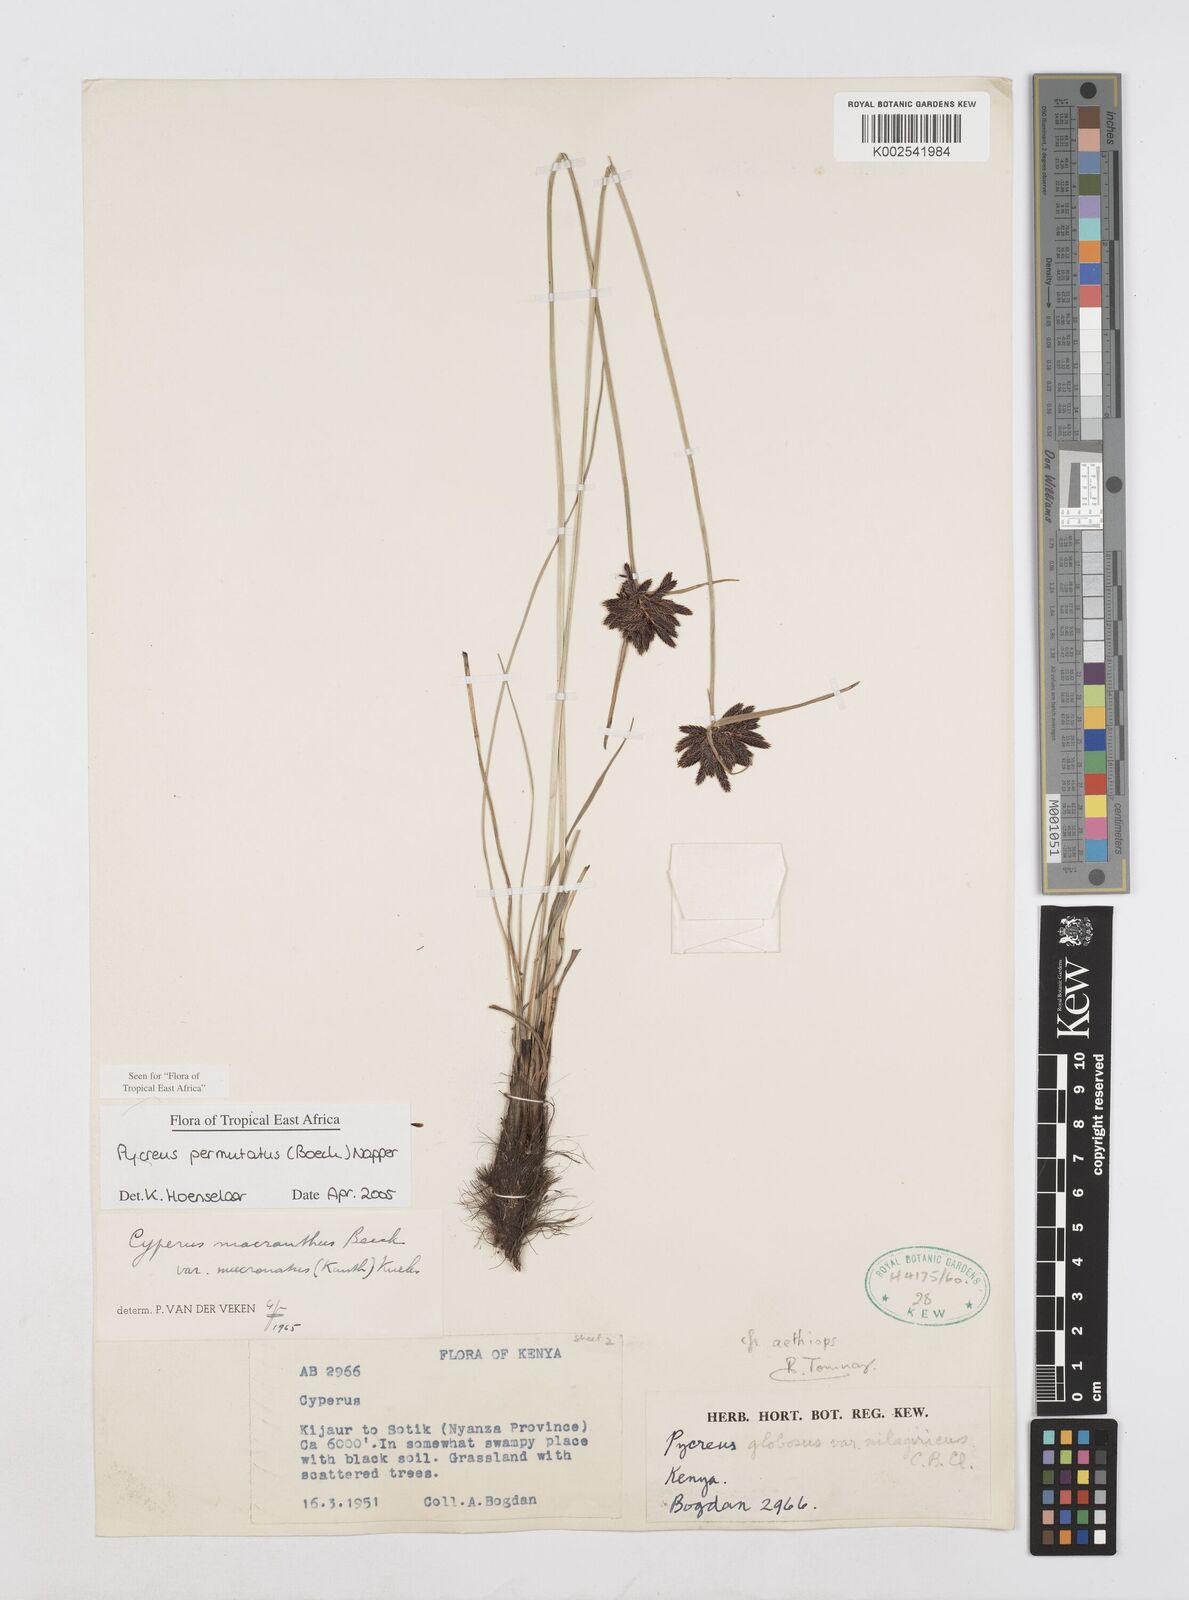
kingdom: Plantae
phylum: Tracheophyta
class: Liliopsida
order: Poales
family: Cyperaceae
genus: Cyperus
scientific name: Cyperus nigricans
